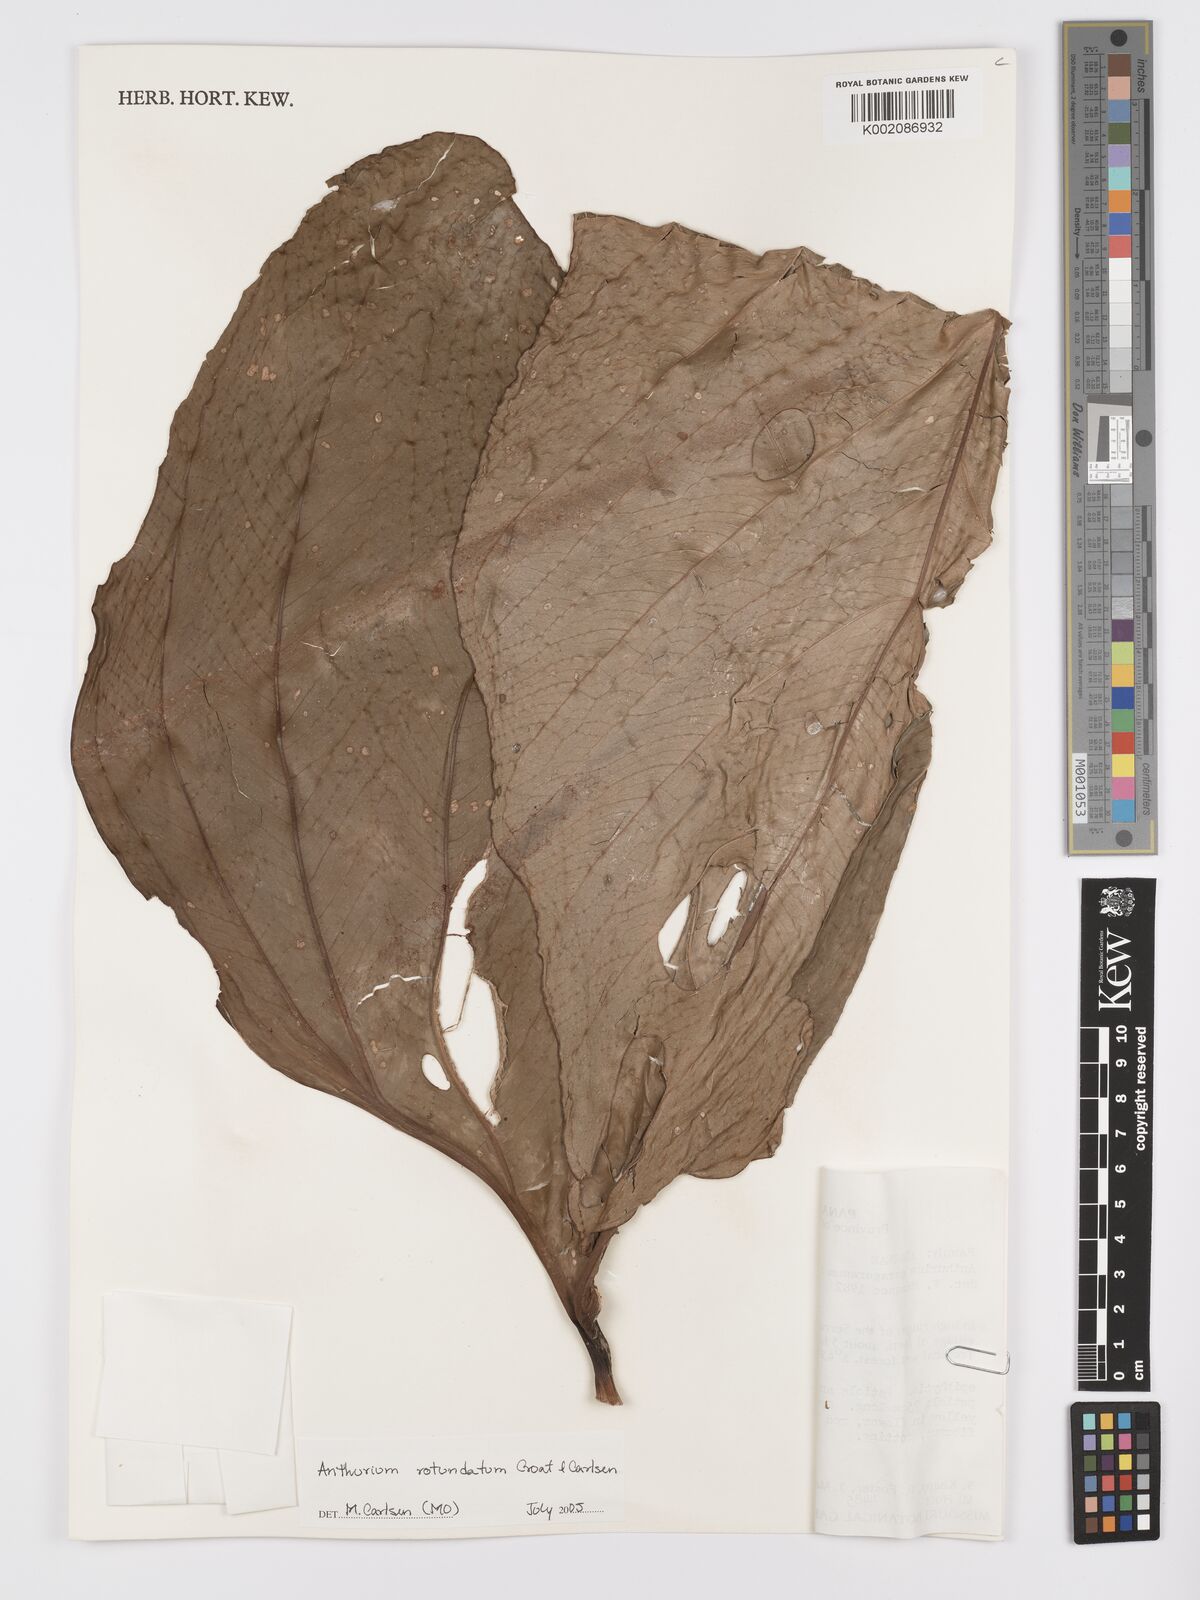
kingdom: Plantae
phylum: Tracheophyta
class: Liliopsida
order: Alismatales
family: Araceae
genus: Anthurium
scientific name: Anthurium rotundatum
